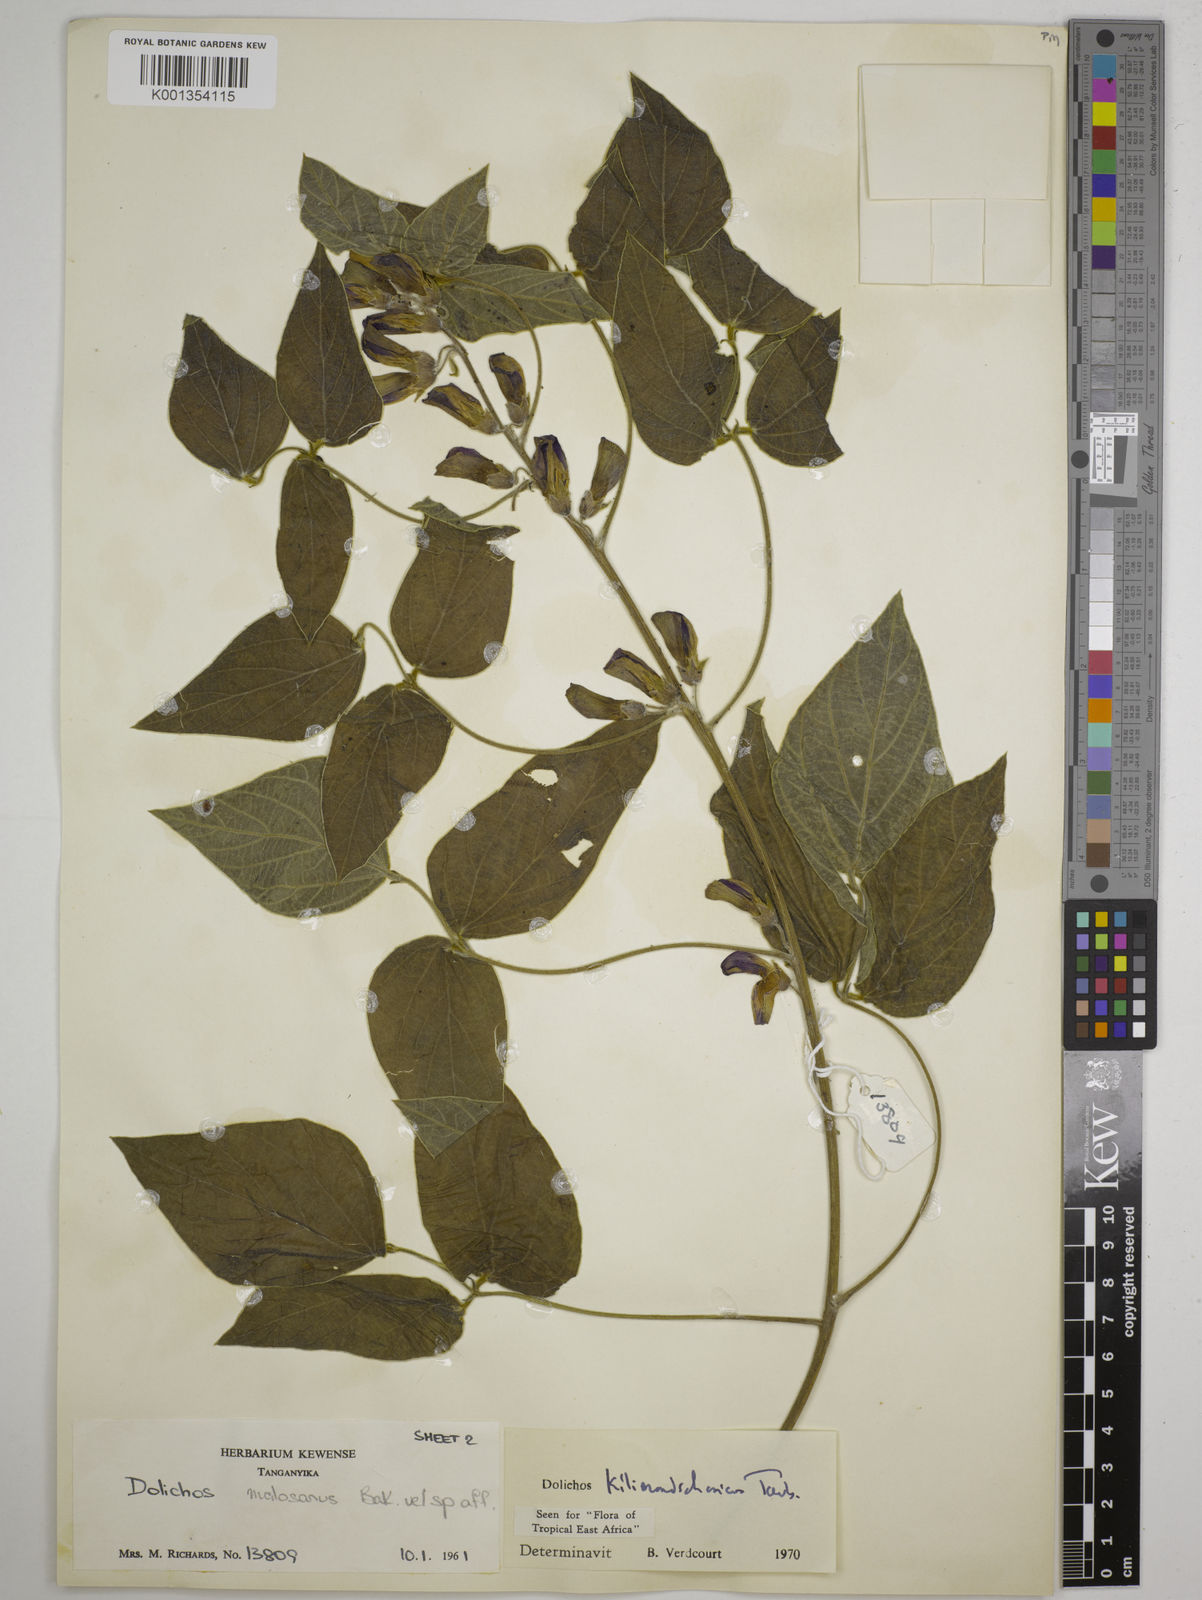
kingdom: Plantae
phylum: Tracheophyta
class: Magnoliopsida
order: Fabales
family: Fabaceae
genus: Dolichos
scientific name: Dolichos kilimandscharicus
